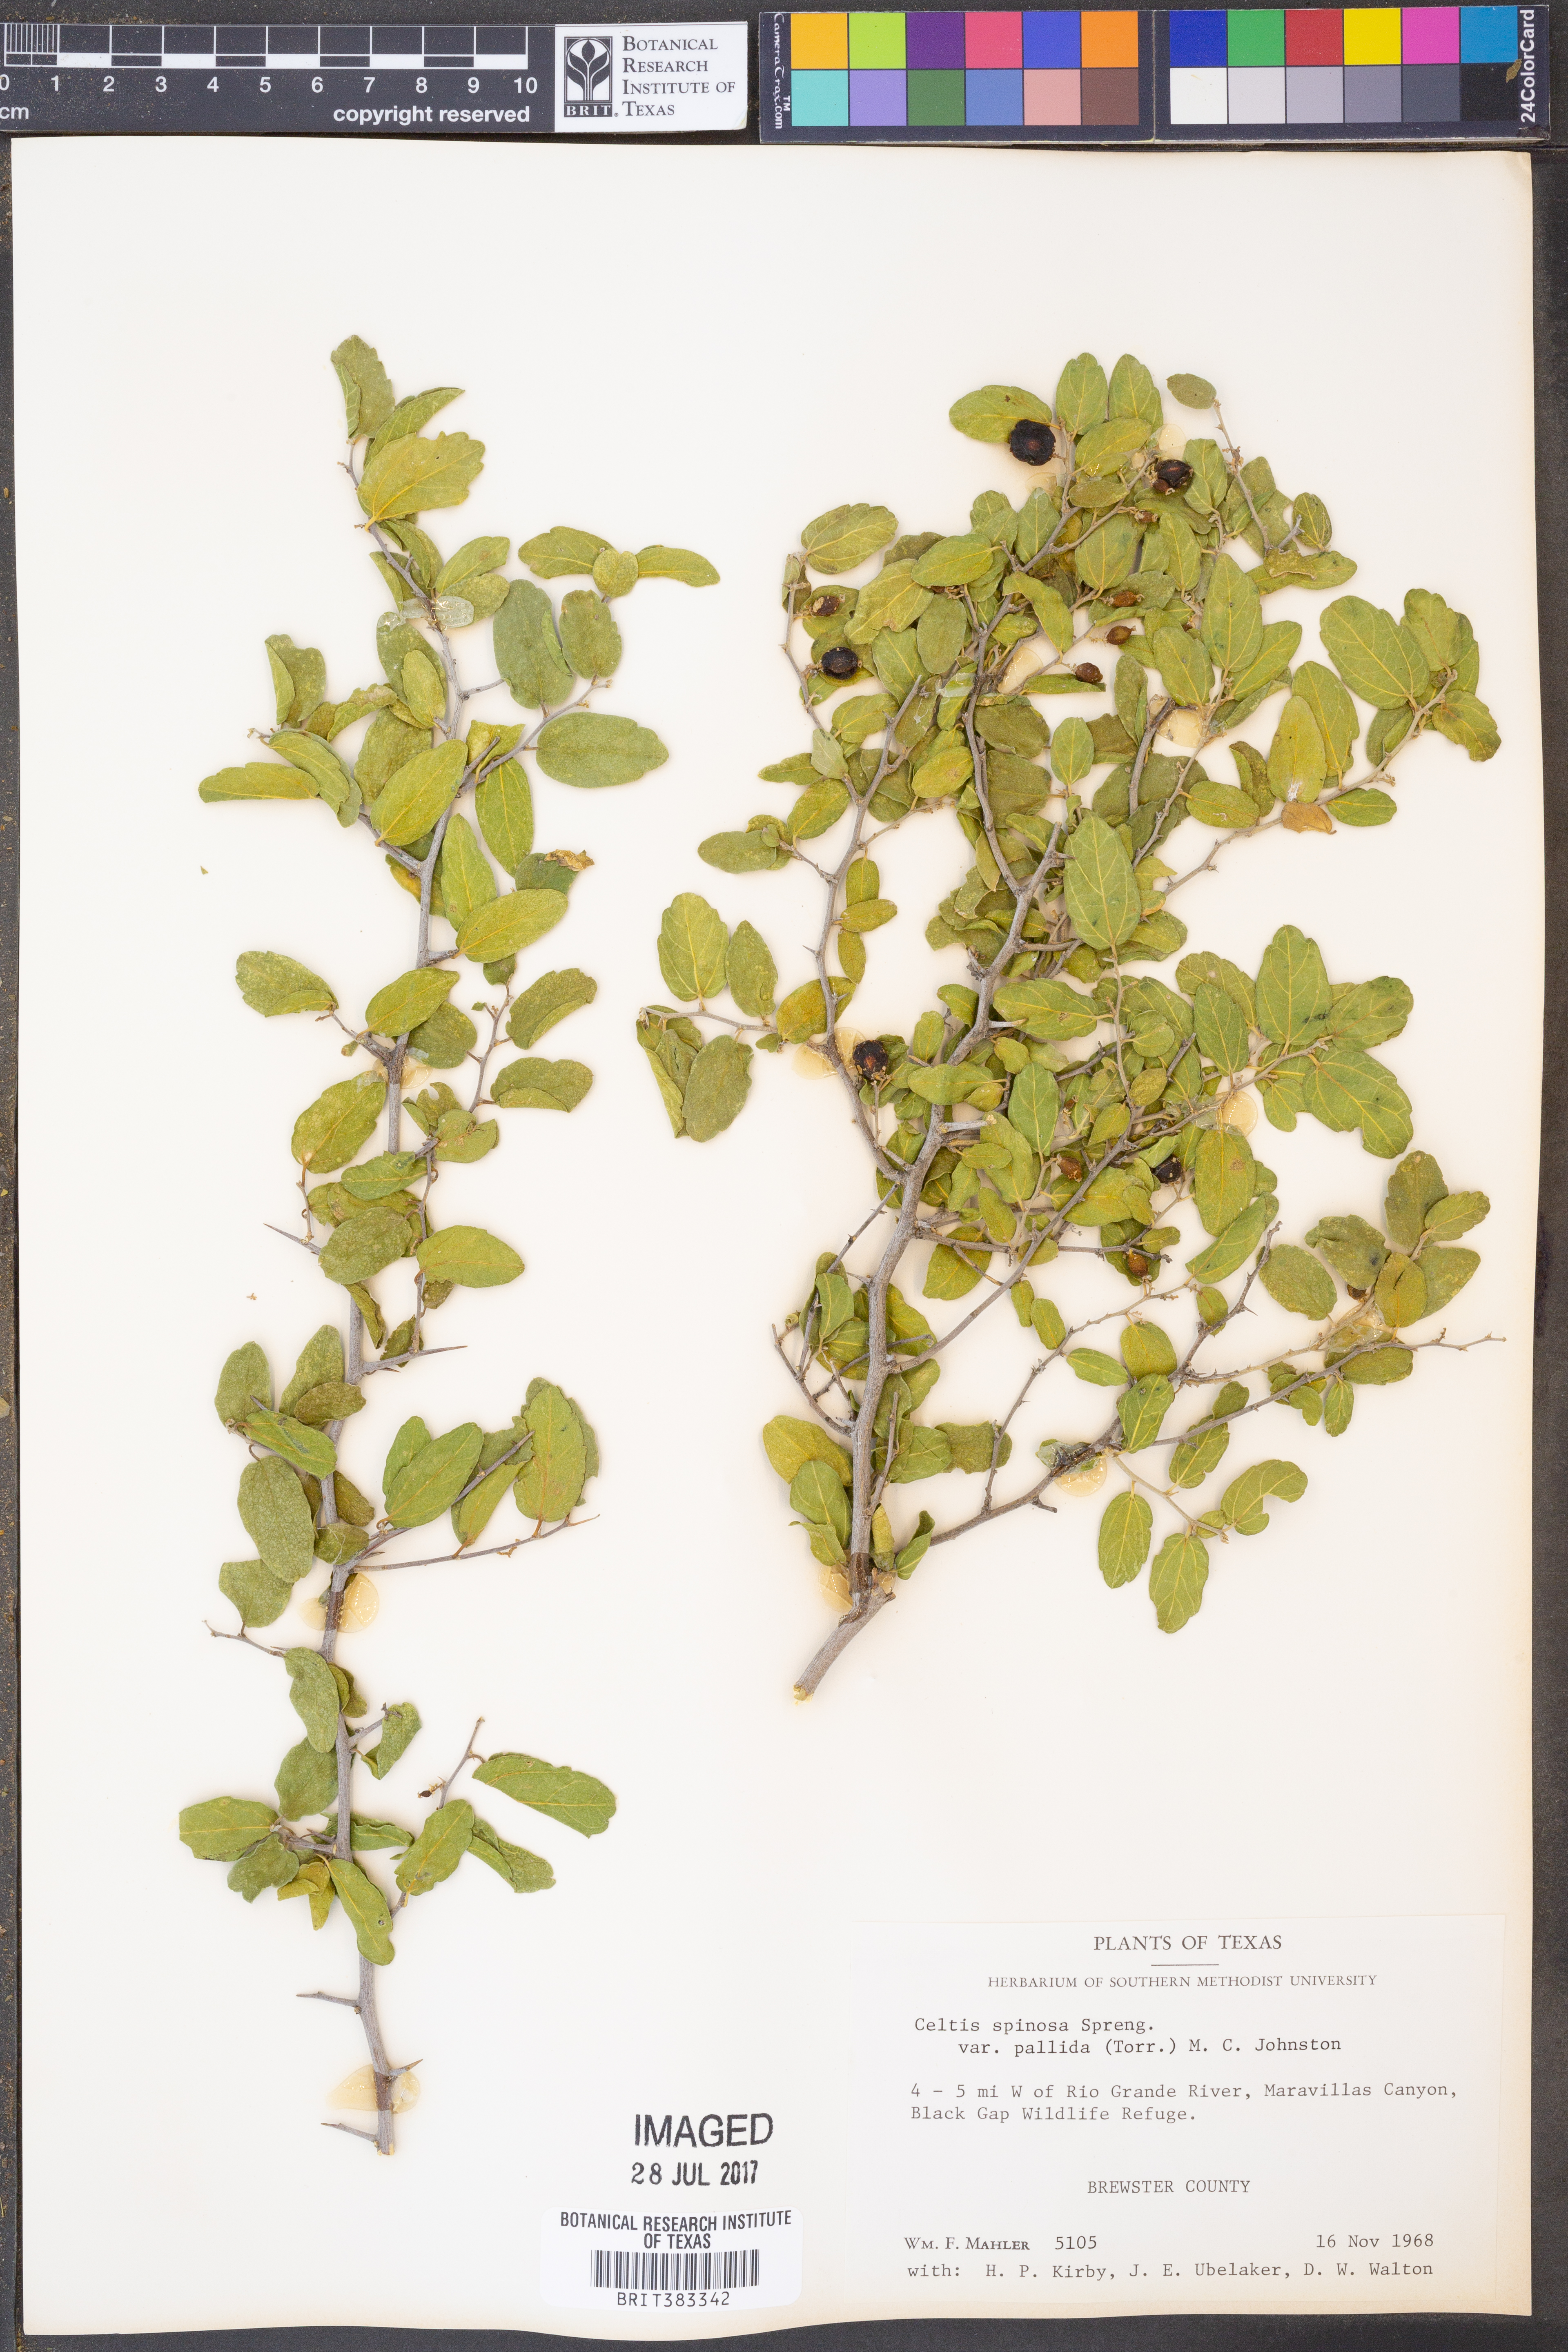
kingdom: Plantae
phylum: Tracheophyta
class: Magnoliopsida
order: Rosales
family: Cannabaceae
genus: Celtis
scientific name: Celtis pallida
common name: Desert hackberry
